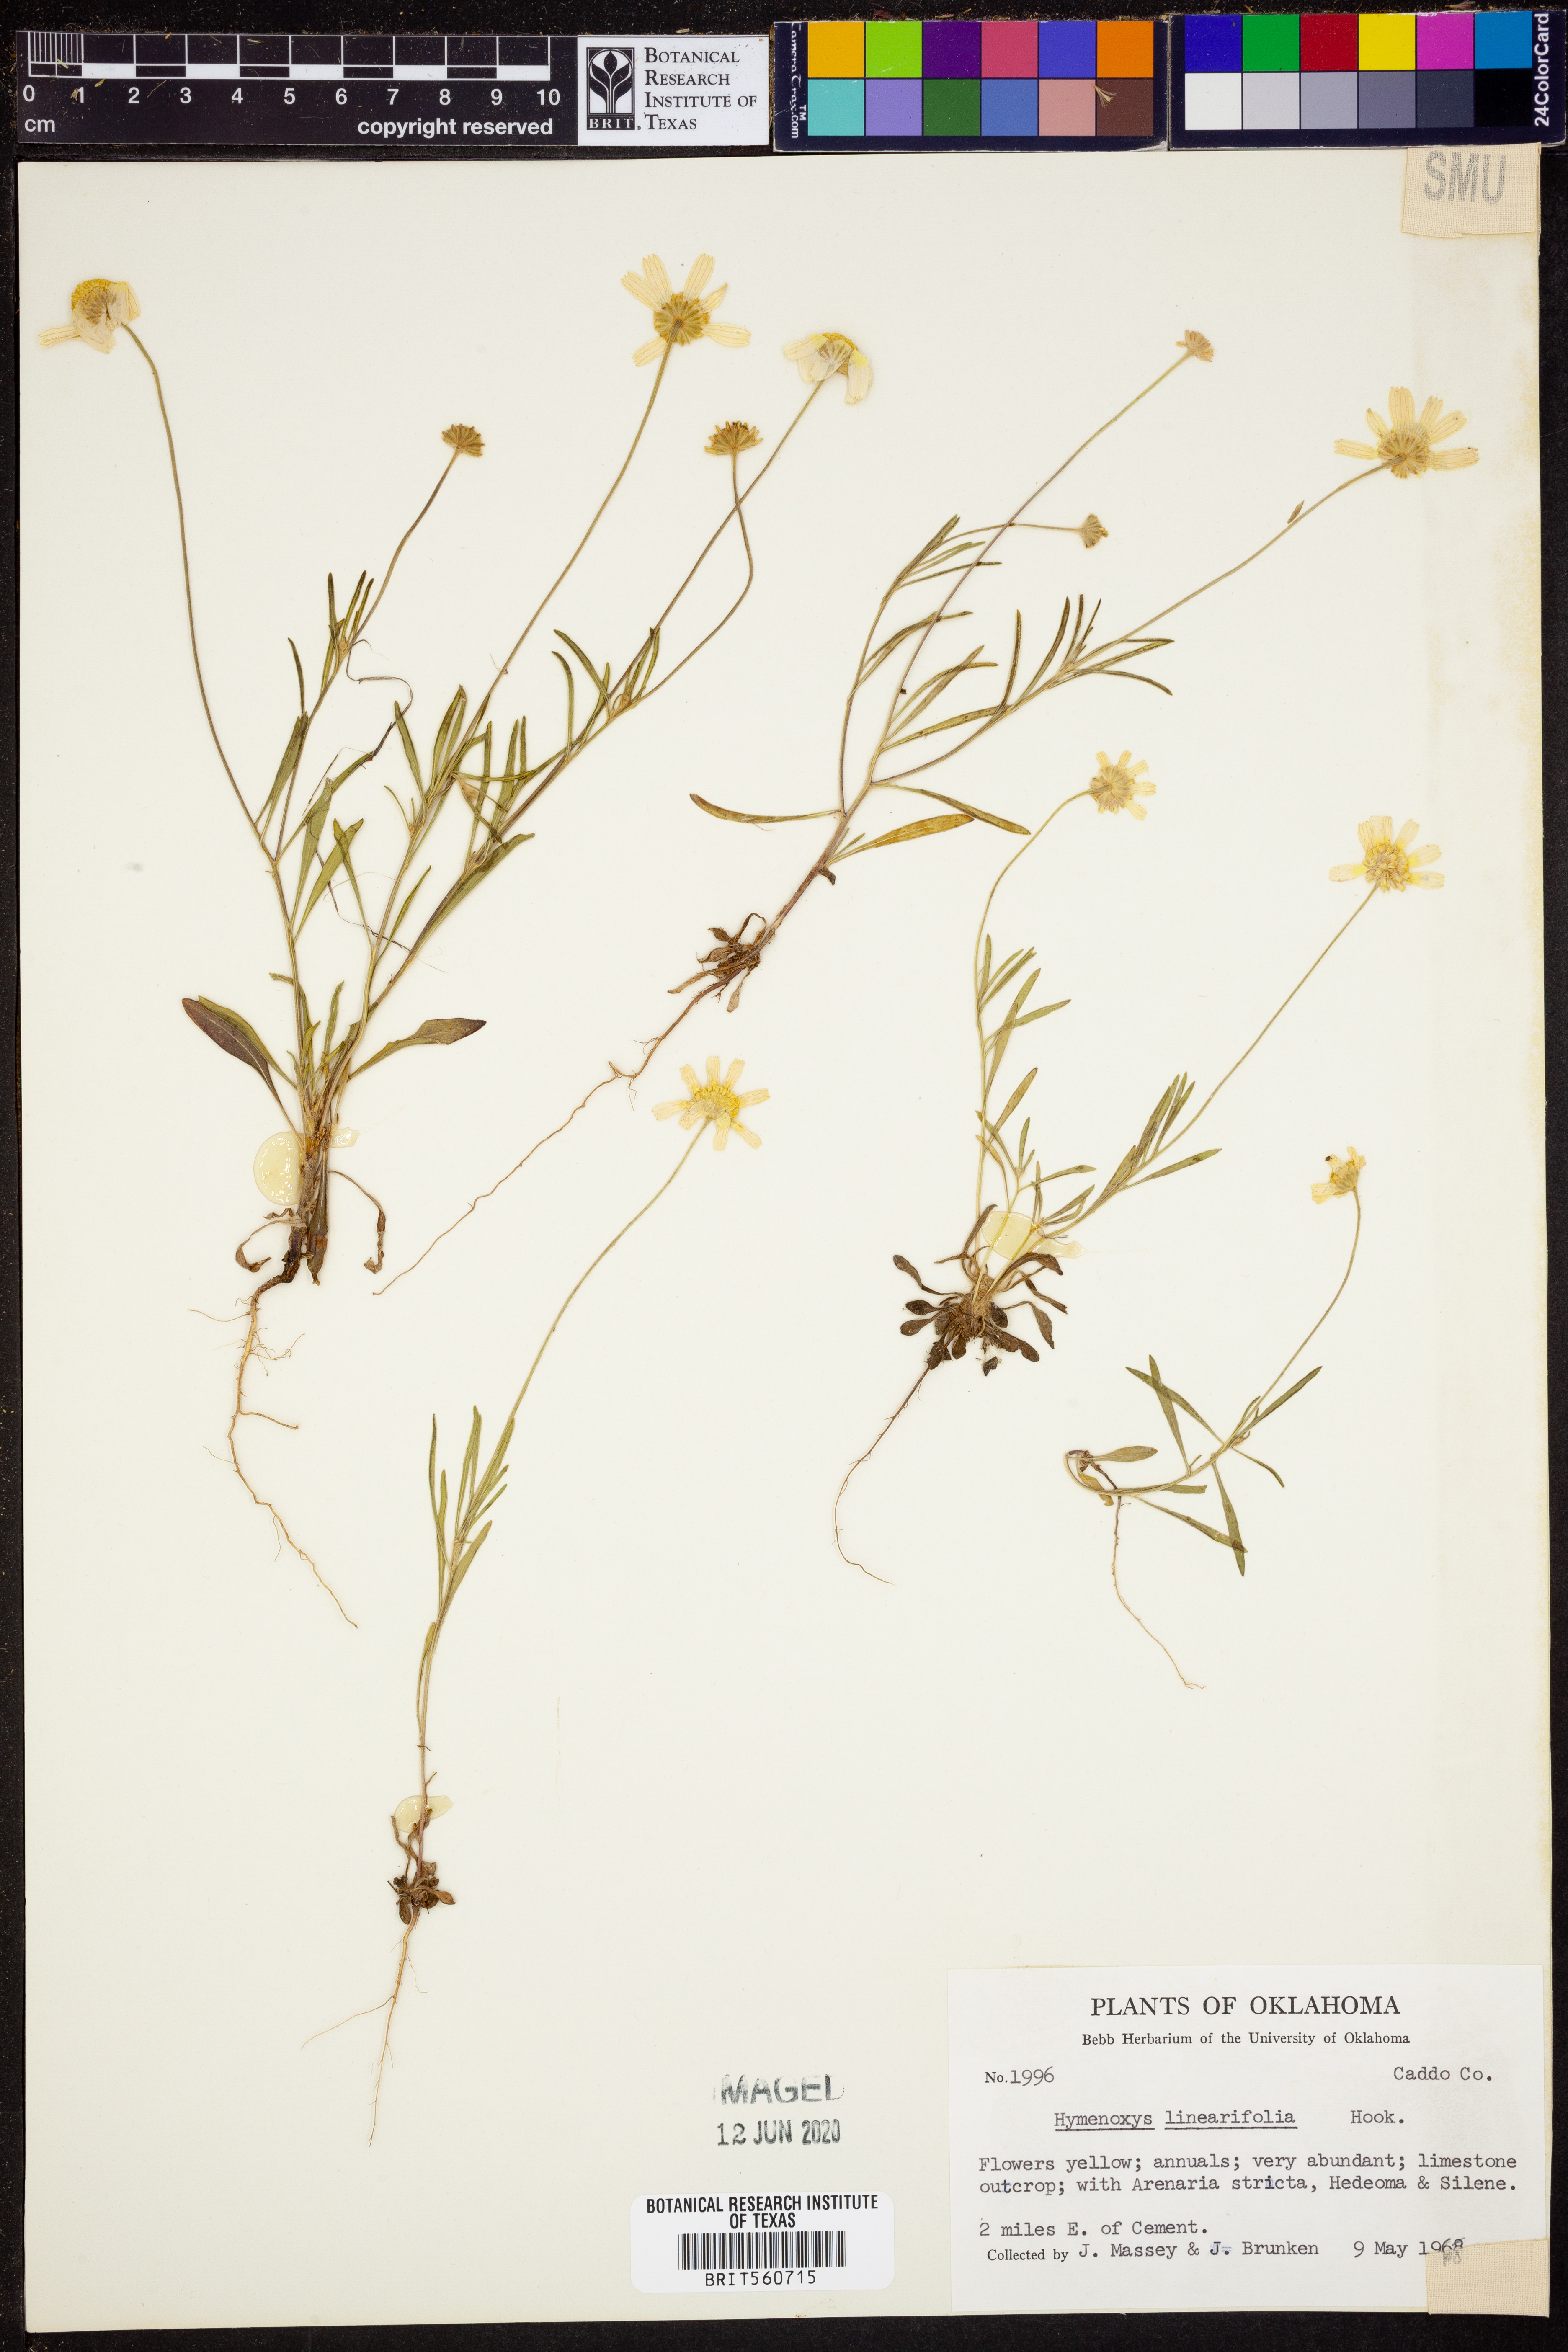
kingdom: Plantae
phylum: Tracheophyta
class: Magnoliopsida
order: Asterales
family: Asteraceae
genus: Tetraneuris
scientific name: Tetraneuris linearifolia
